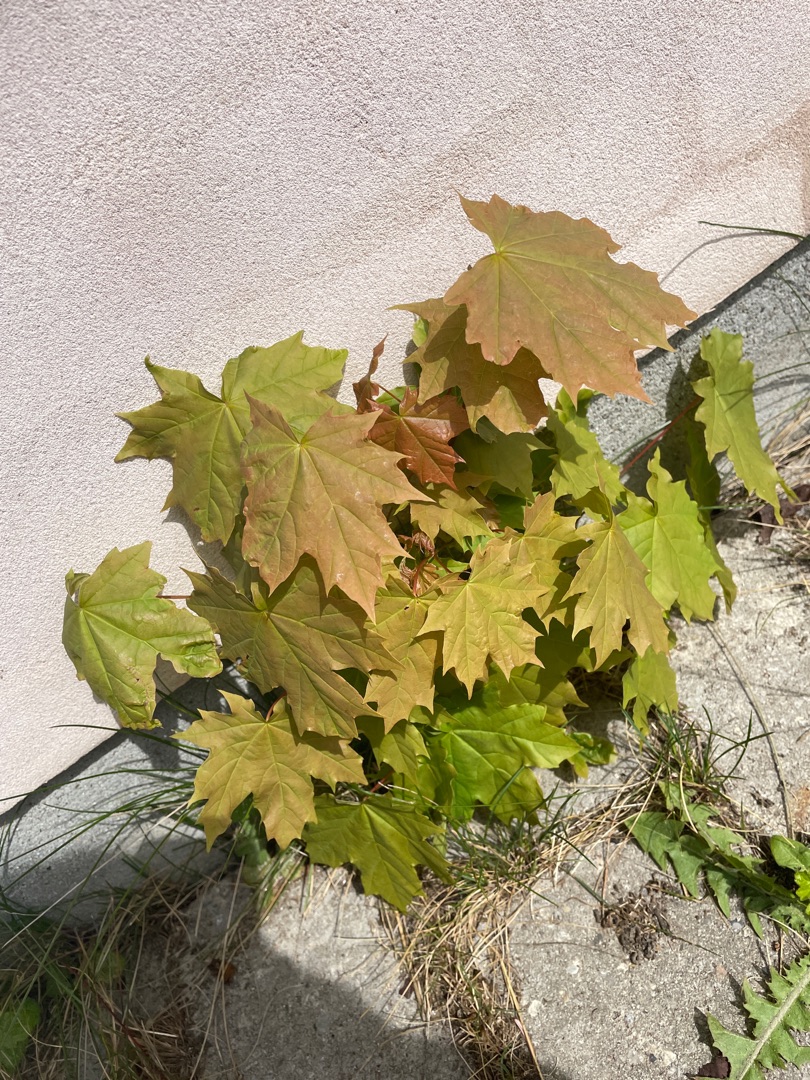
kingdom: Plantae
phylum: Tracheophyta
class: Magnoliopsida
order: Sapindales
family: Sapindaceae
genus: Acer
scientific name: Acer platanoides
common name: Spids-løn
